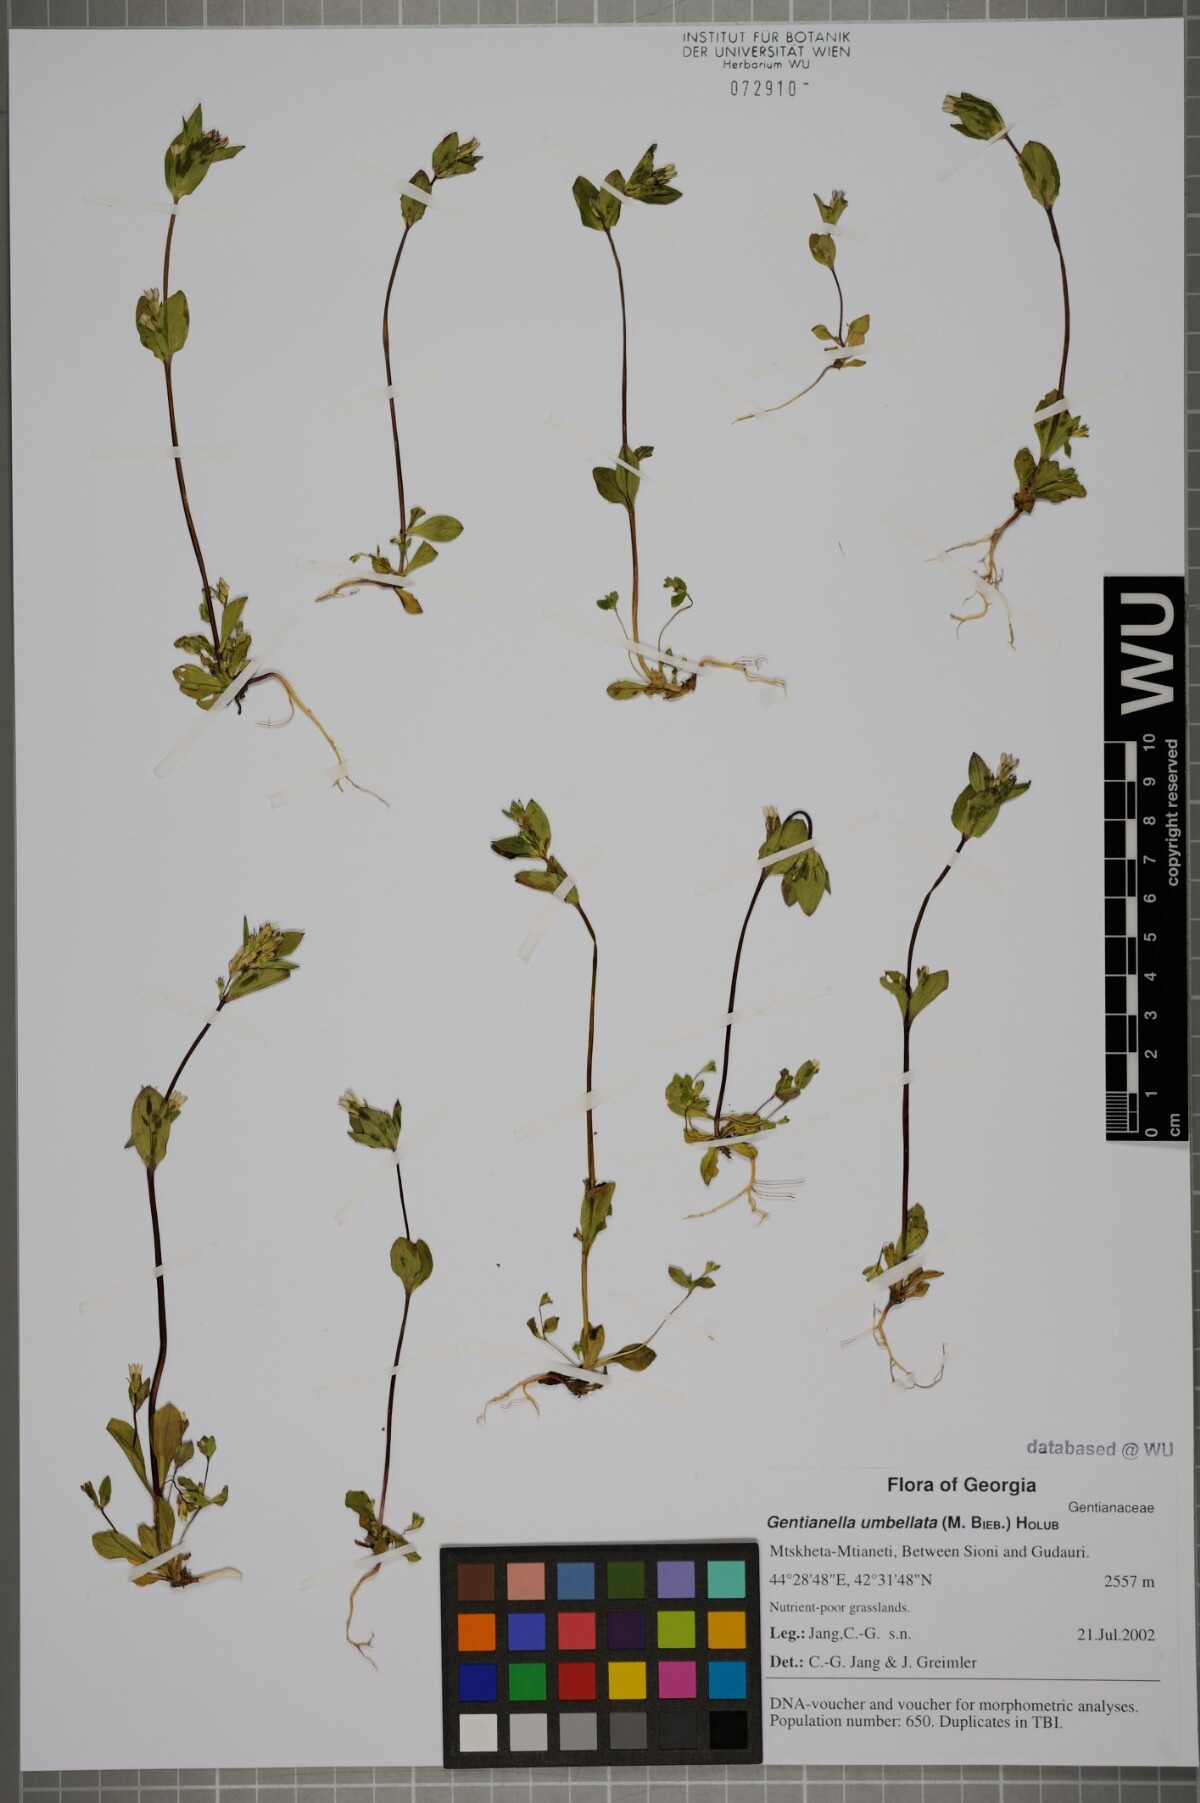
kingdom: Plantae
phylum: Tracheophyta
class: Magnoliopsida
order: Gentianales
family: Gentianaceae
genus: Gentianella
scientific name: Gentianella umbellata
